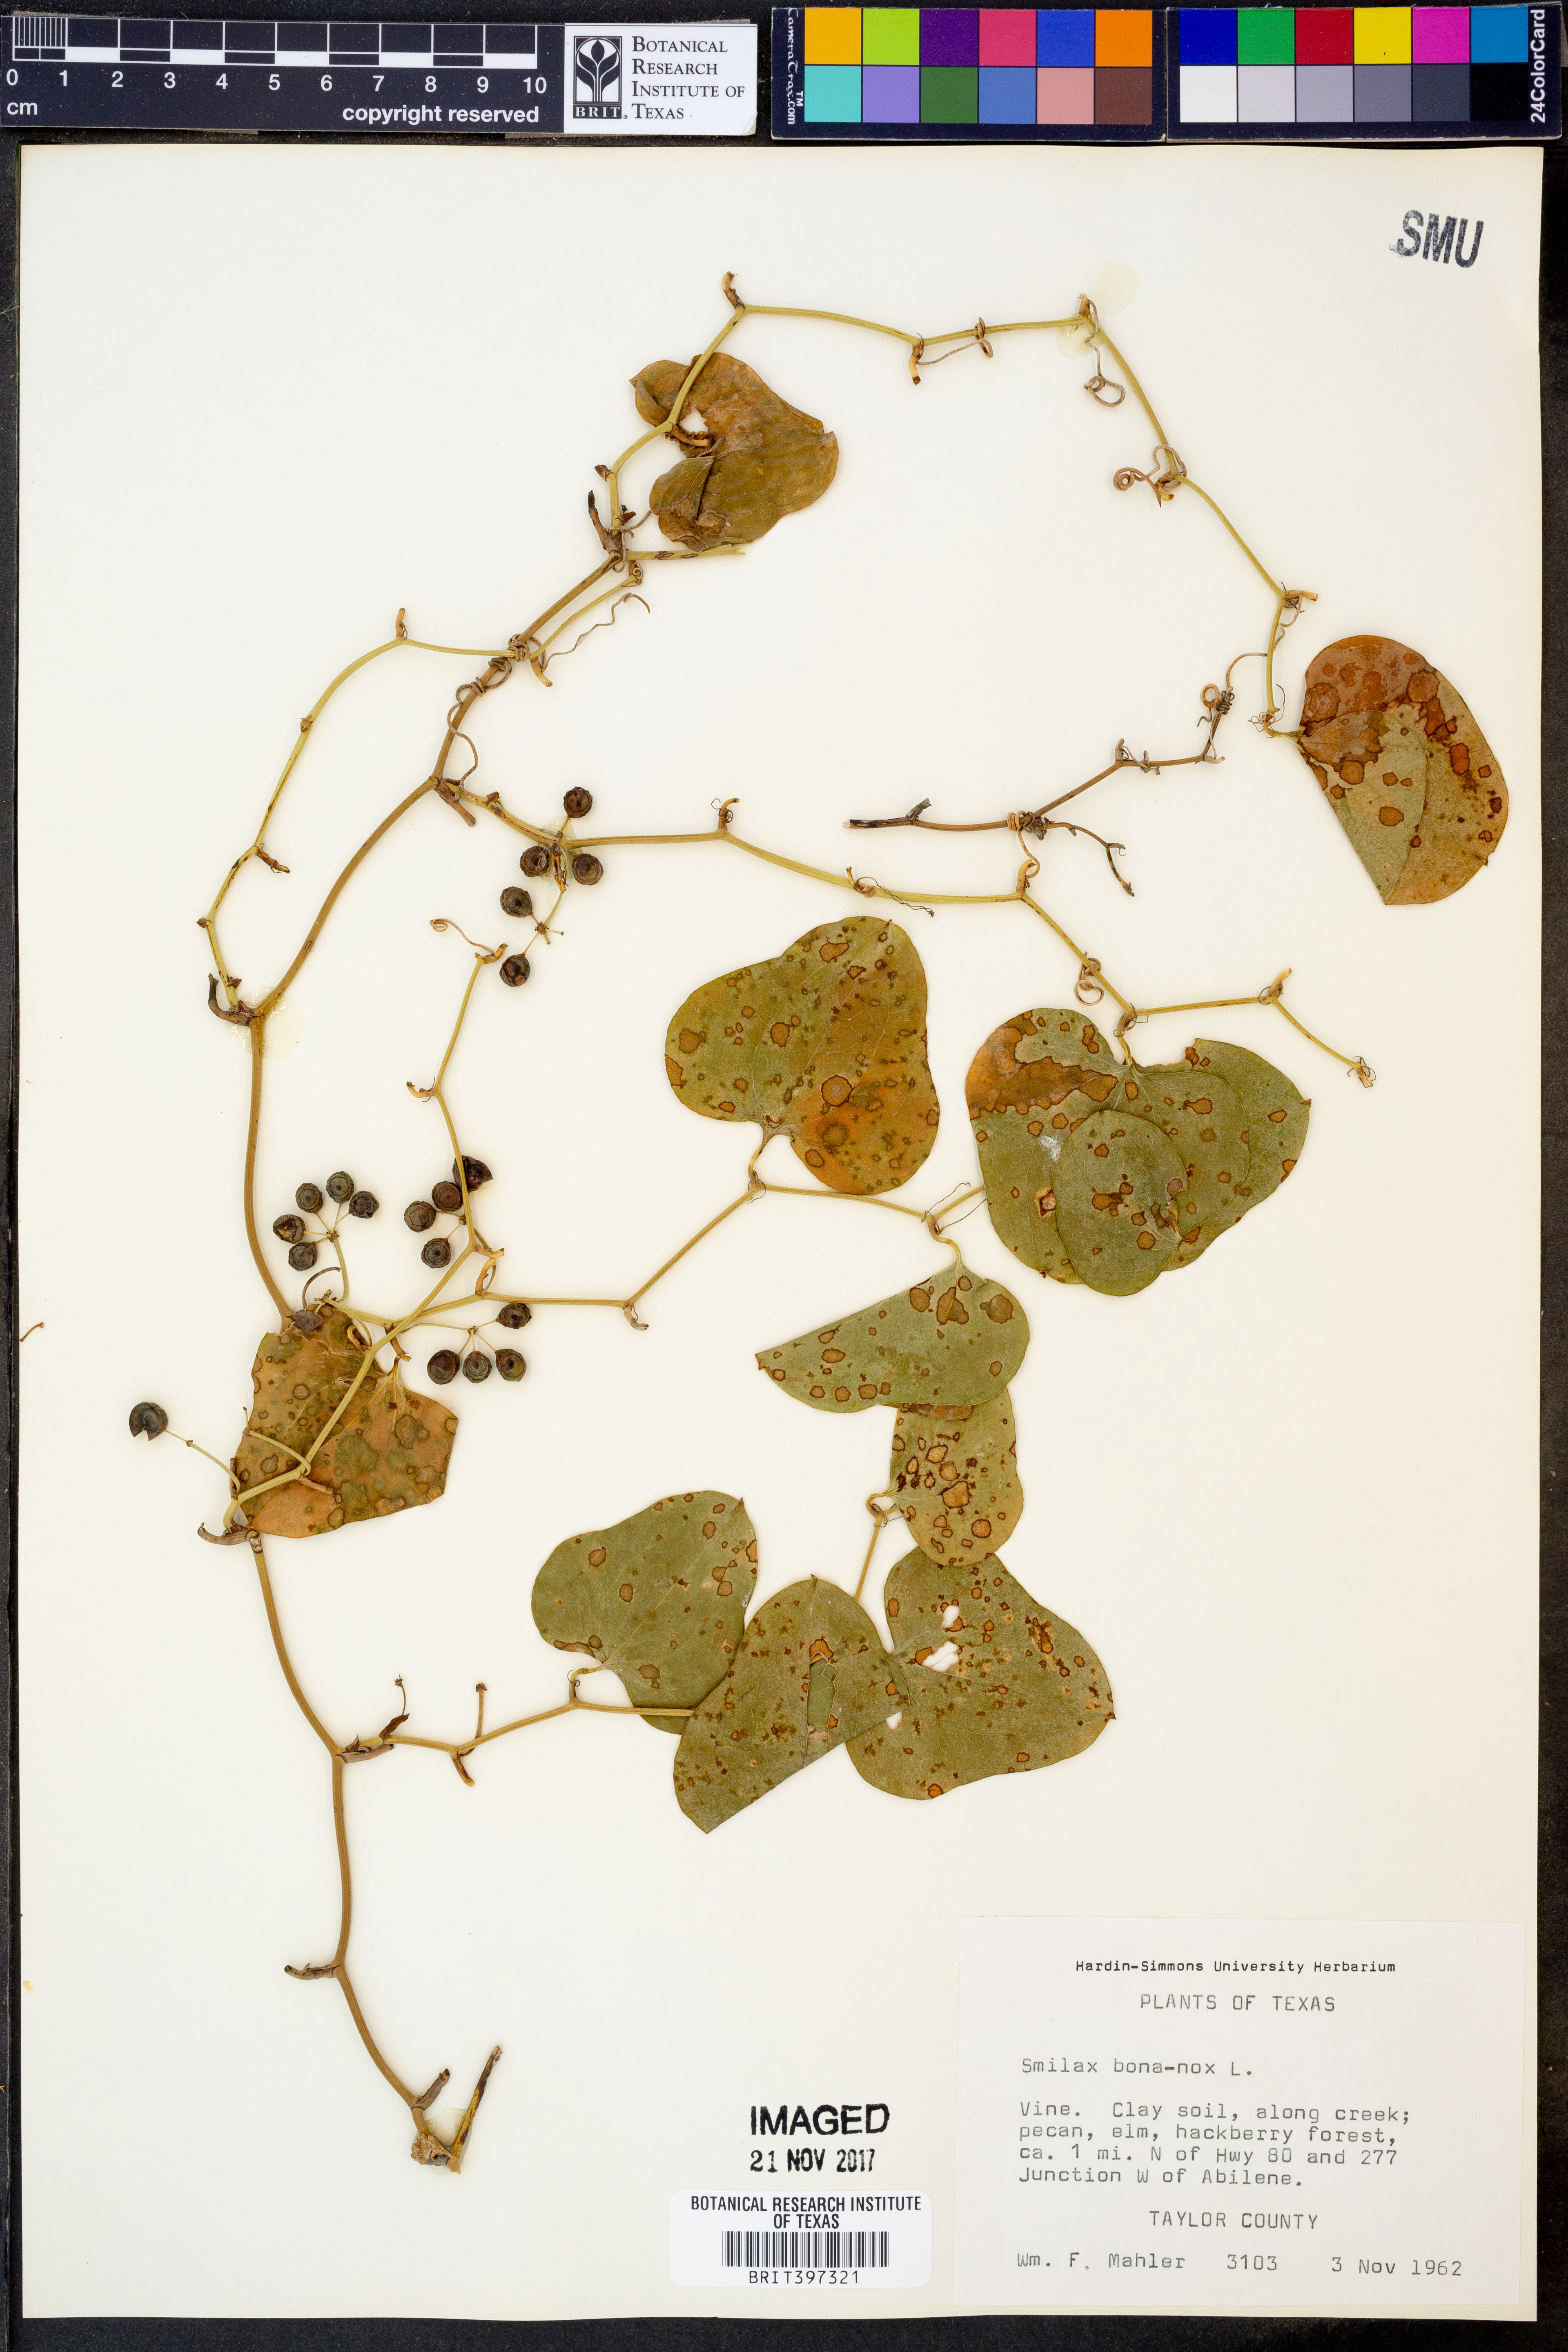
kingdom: Plantae
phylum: Tracheophyta
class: Liliopsida
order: Liliales
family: Smilacaceae
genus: Smilax
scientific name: Smilax bona-nox
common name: Catbrier
